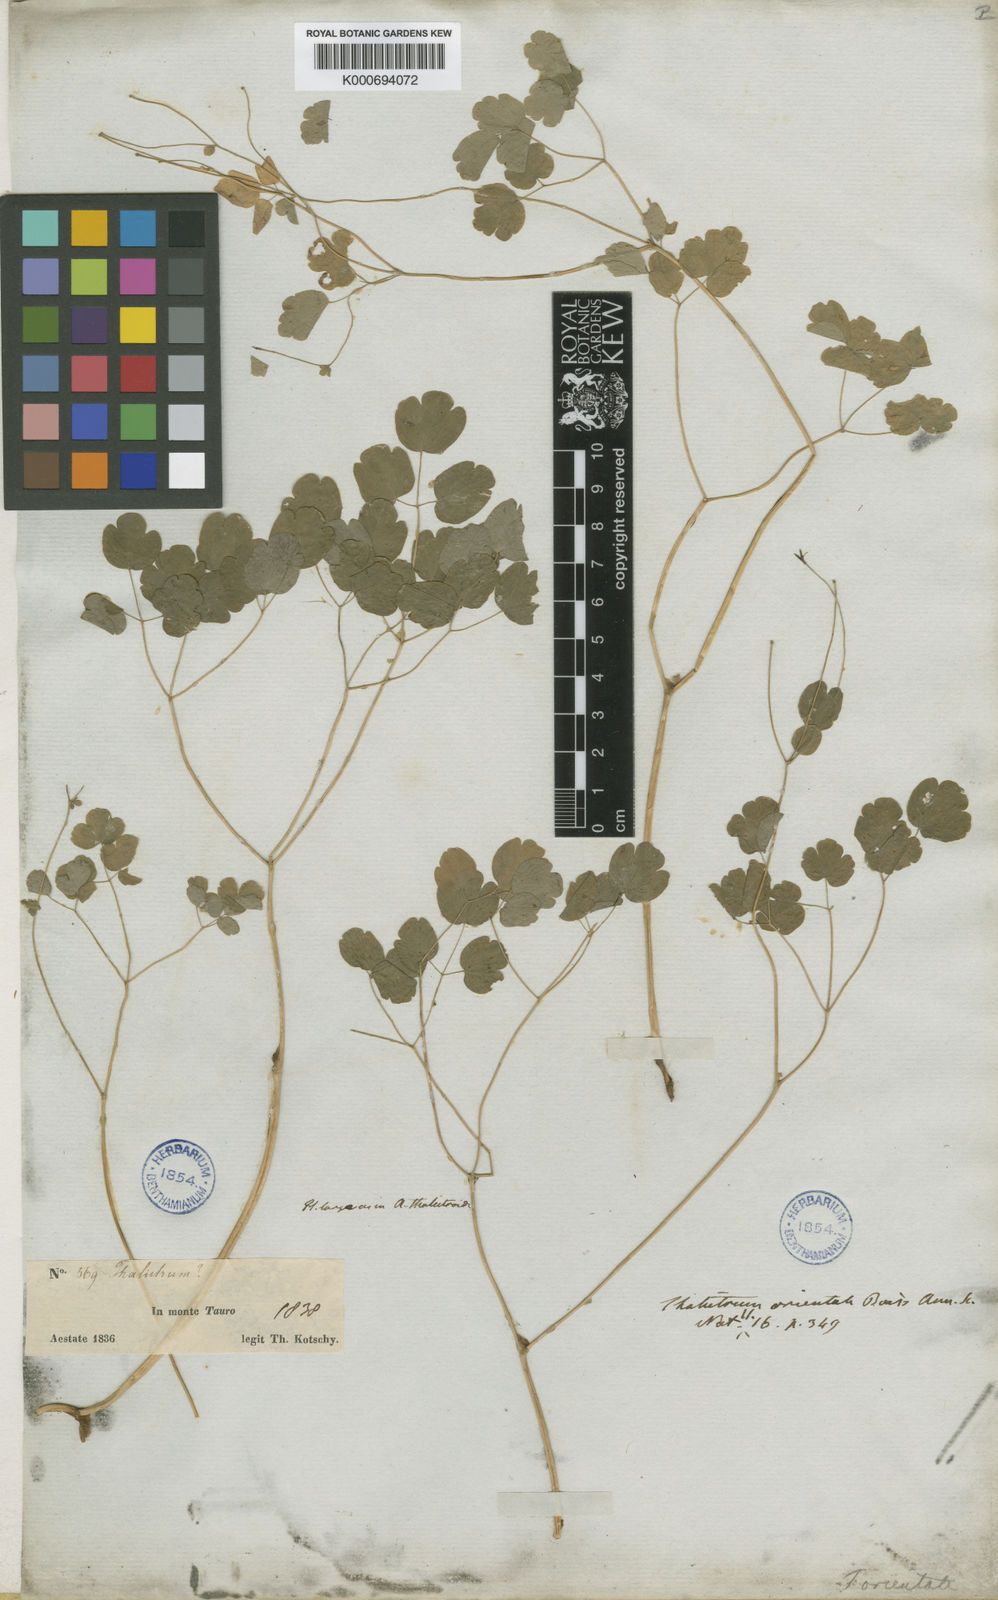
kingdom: Plantae
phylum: Tracheophyta
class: Magnoliopsida
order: Ranunculales
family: Ranunculaceae
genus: Thalictrum
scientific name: Thalictrum orientale
